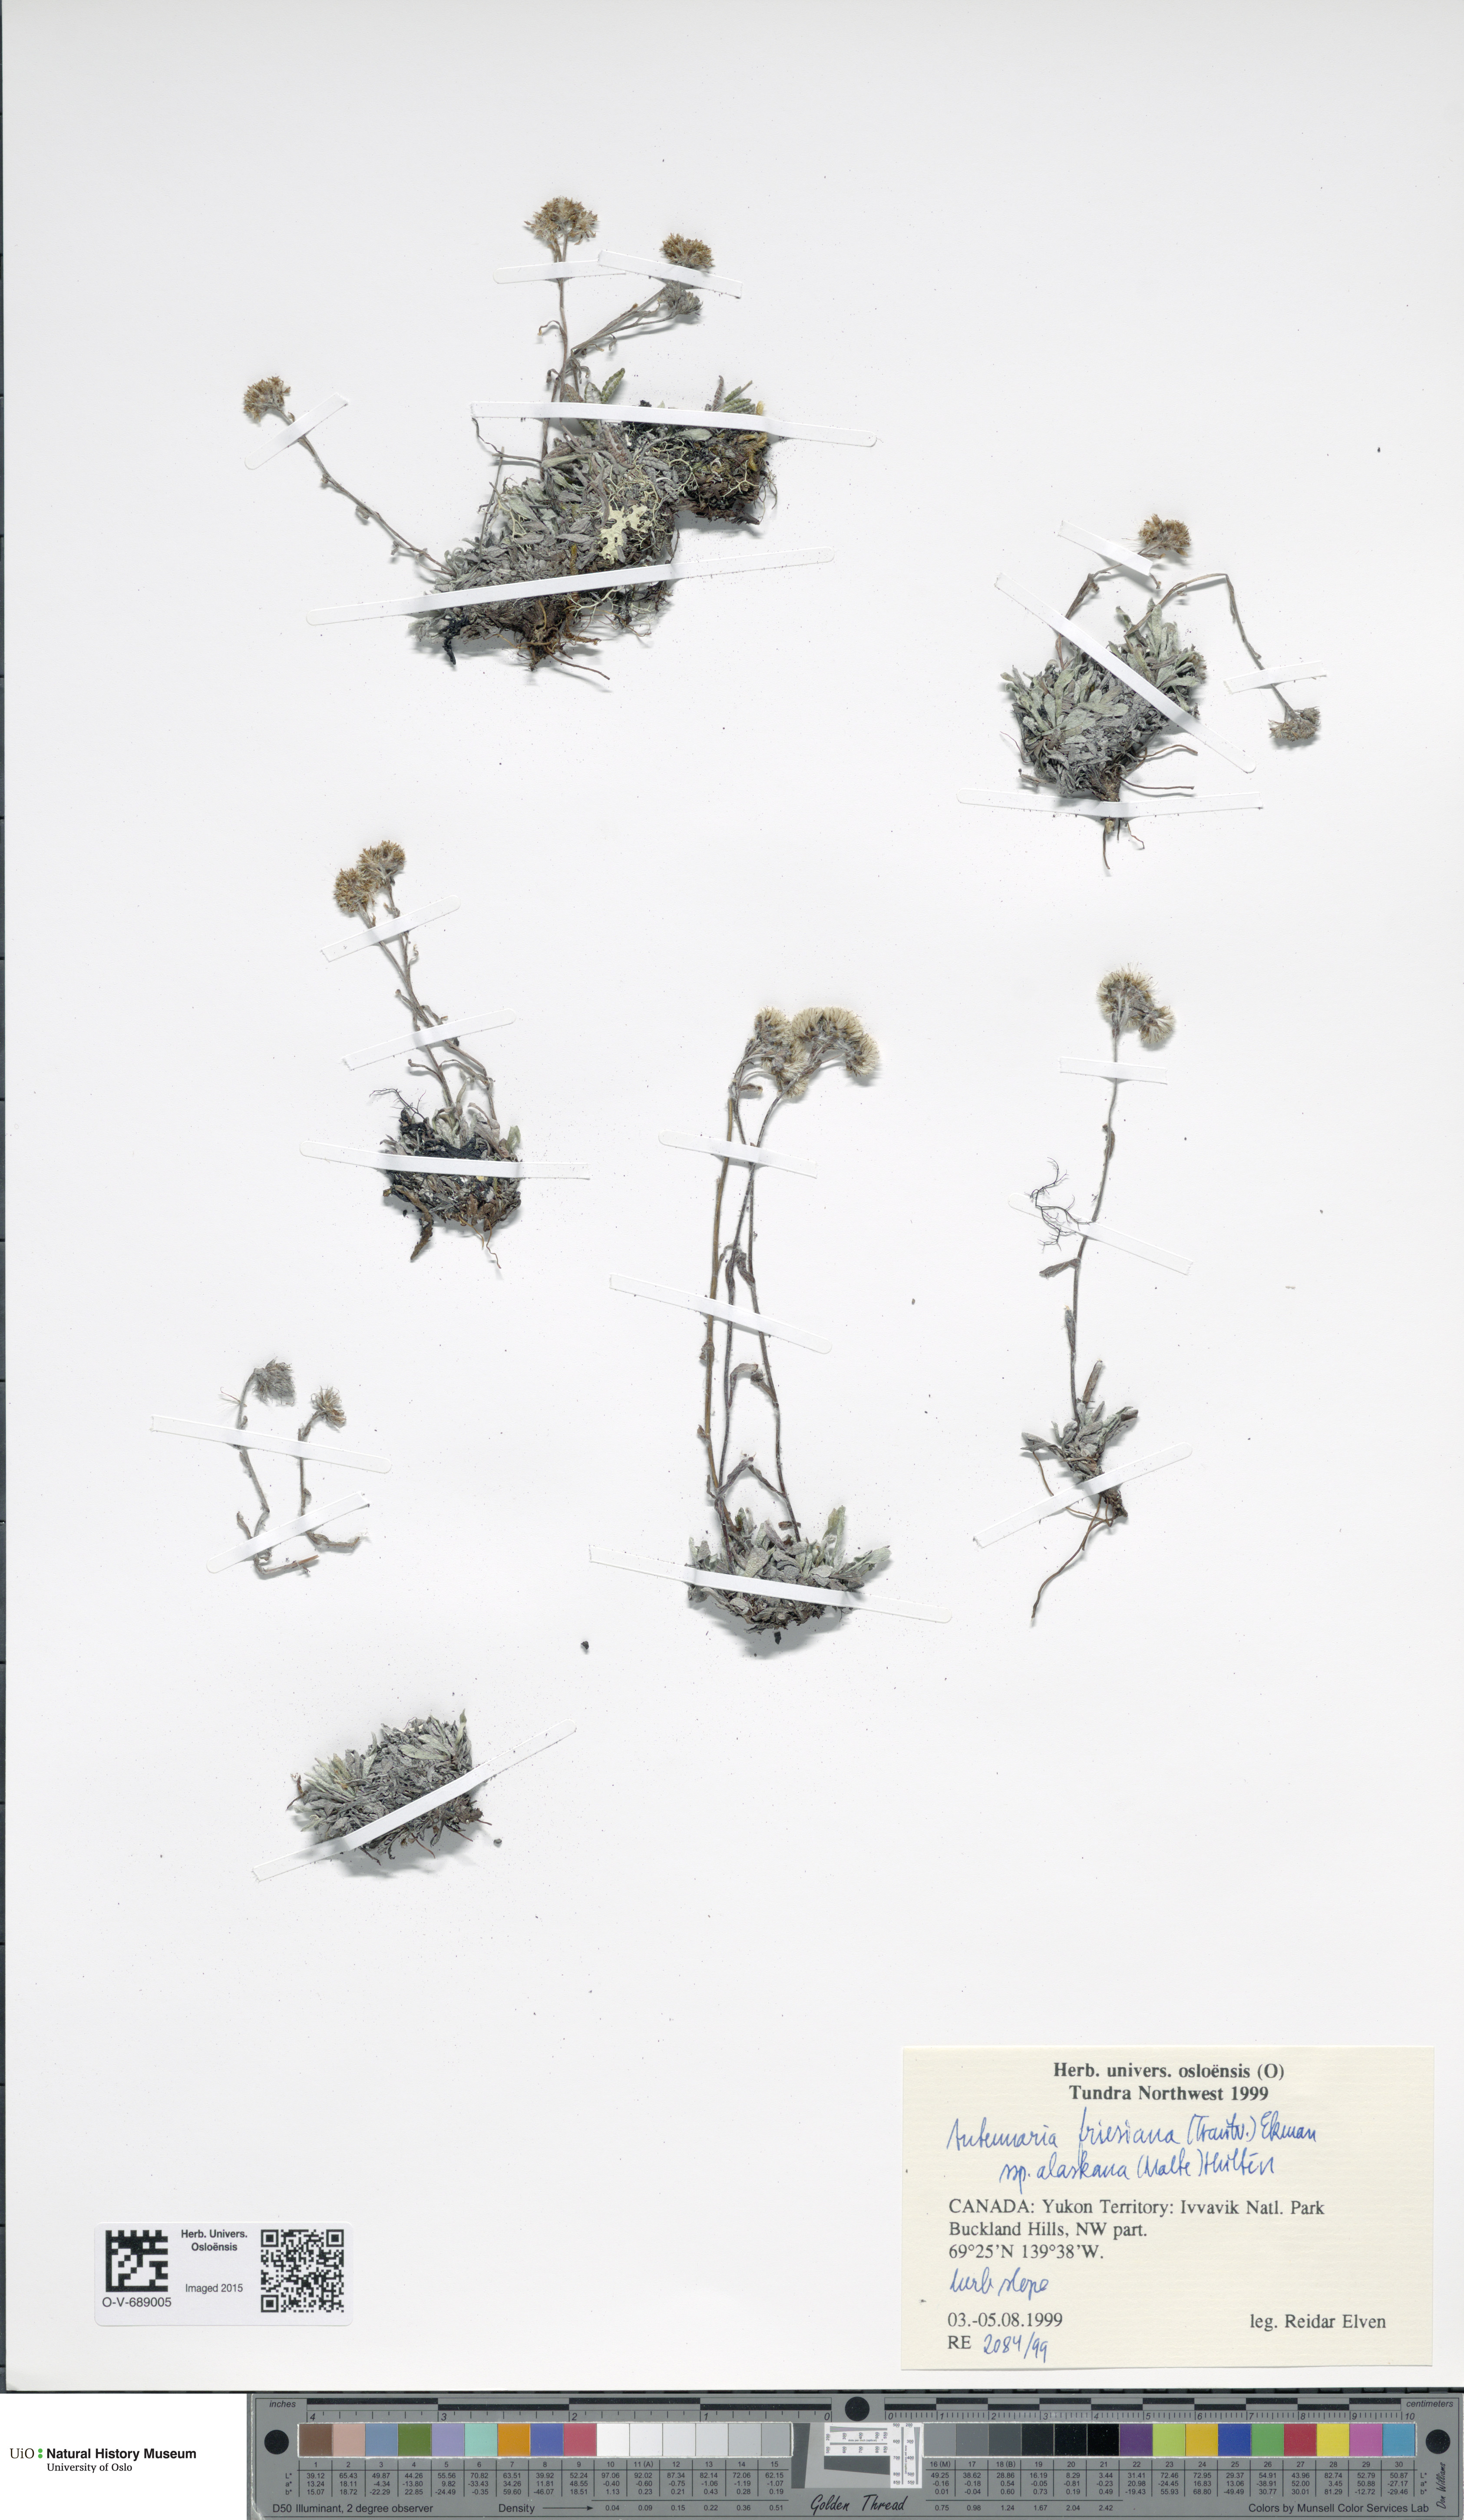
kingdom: Plantae
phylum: Tracheophyta
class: Magnoliopsida
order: Asterales
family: Asteraceae
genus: Antennaria
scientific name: Antennaria friesiana
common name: Fries' pussytoes
